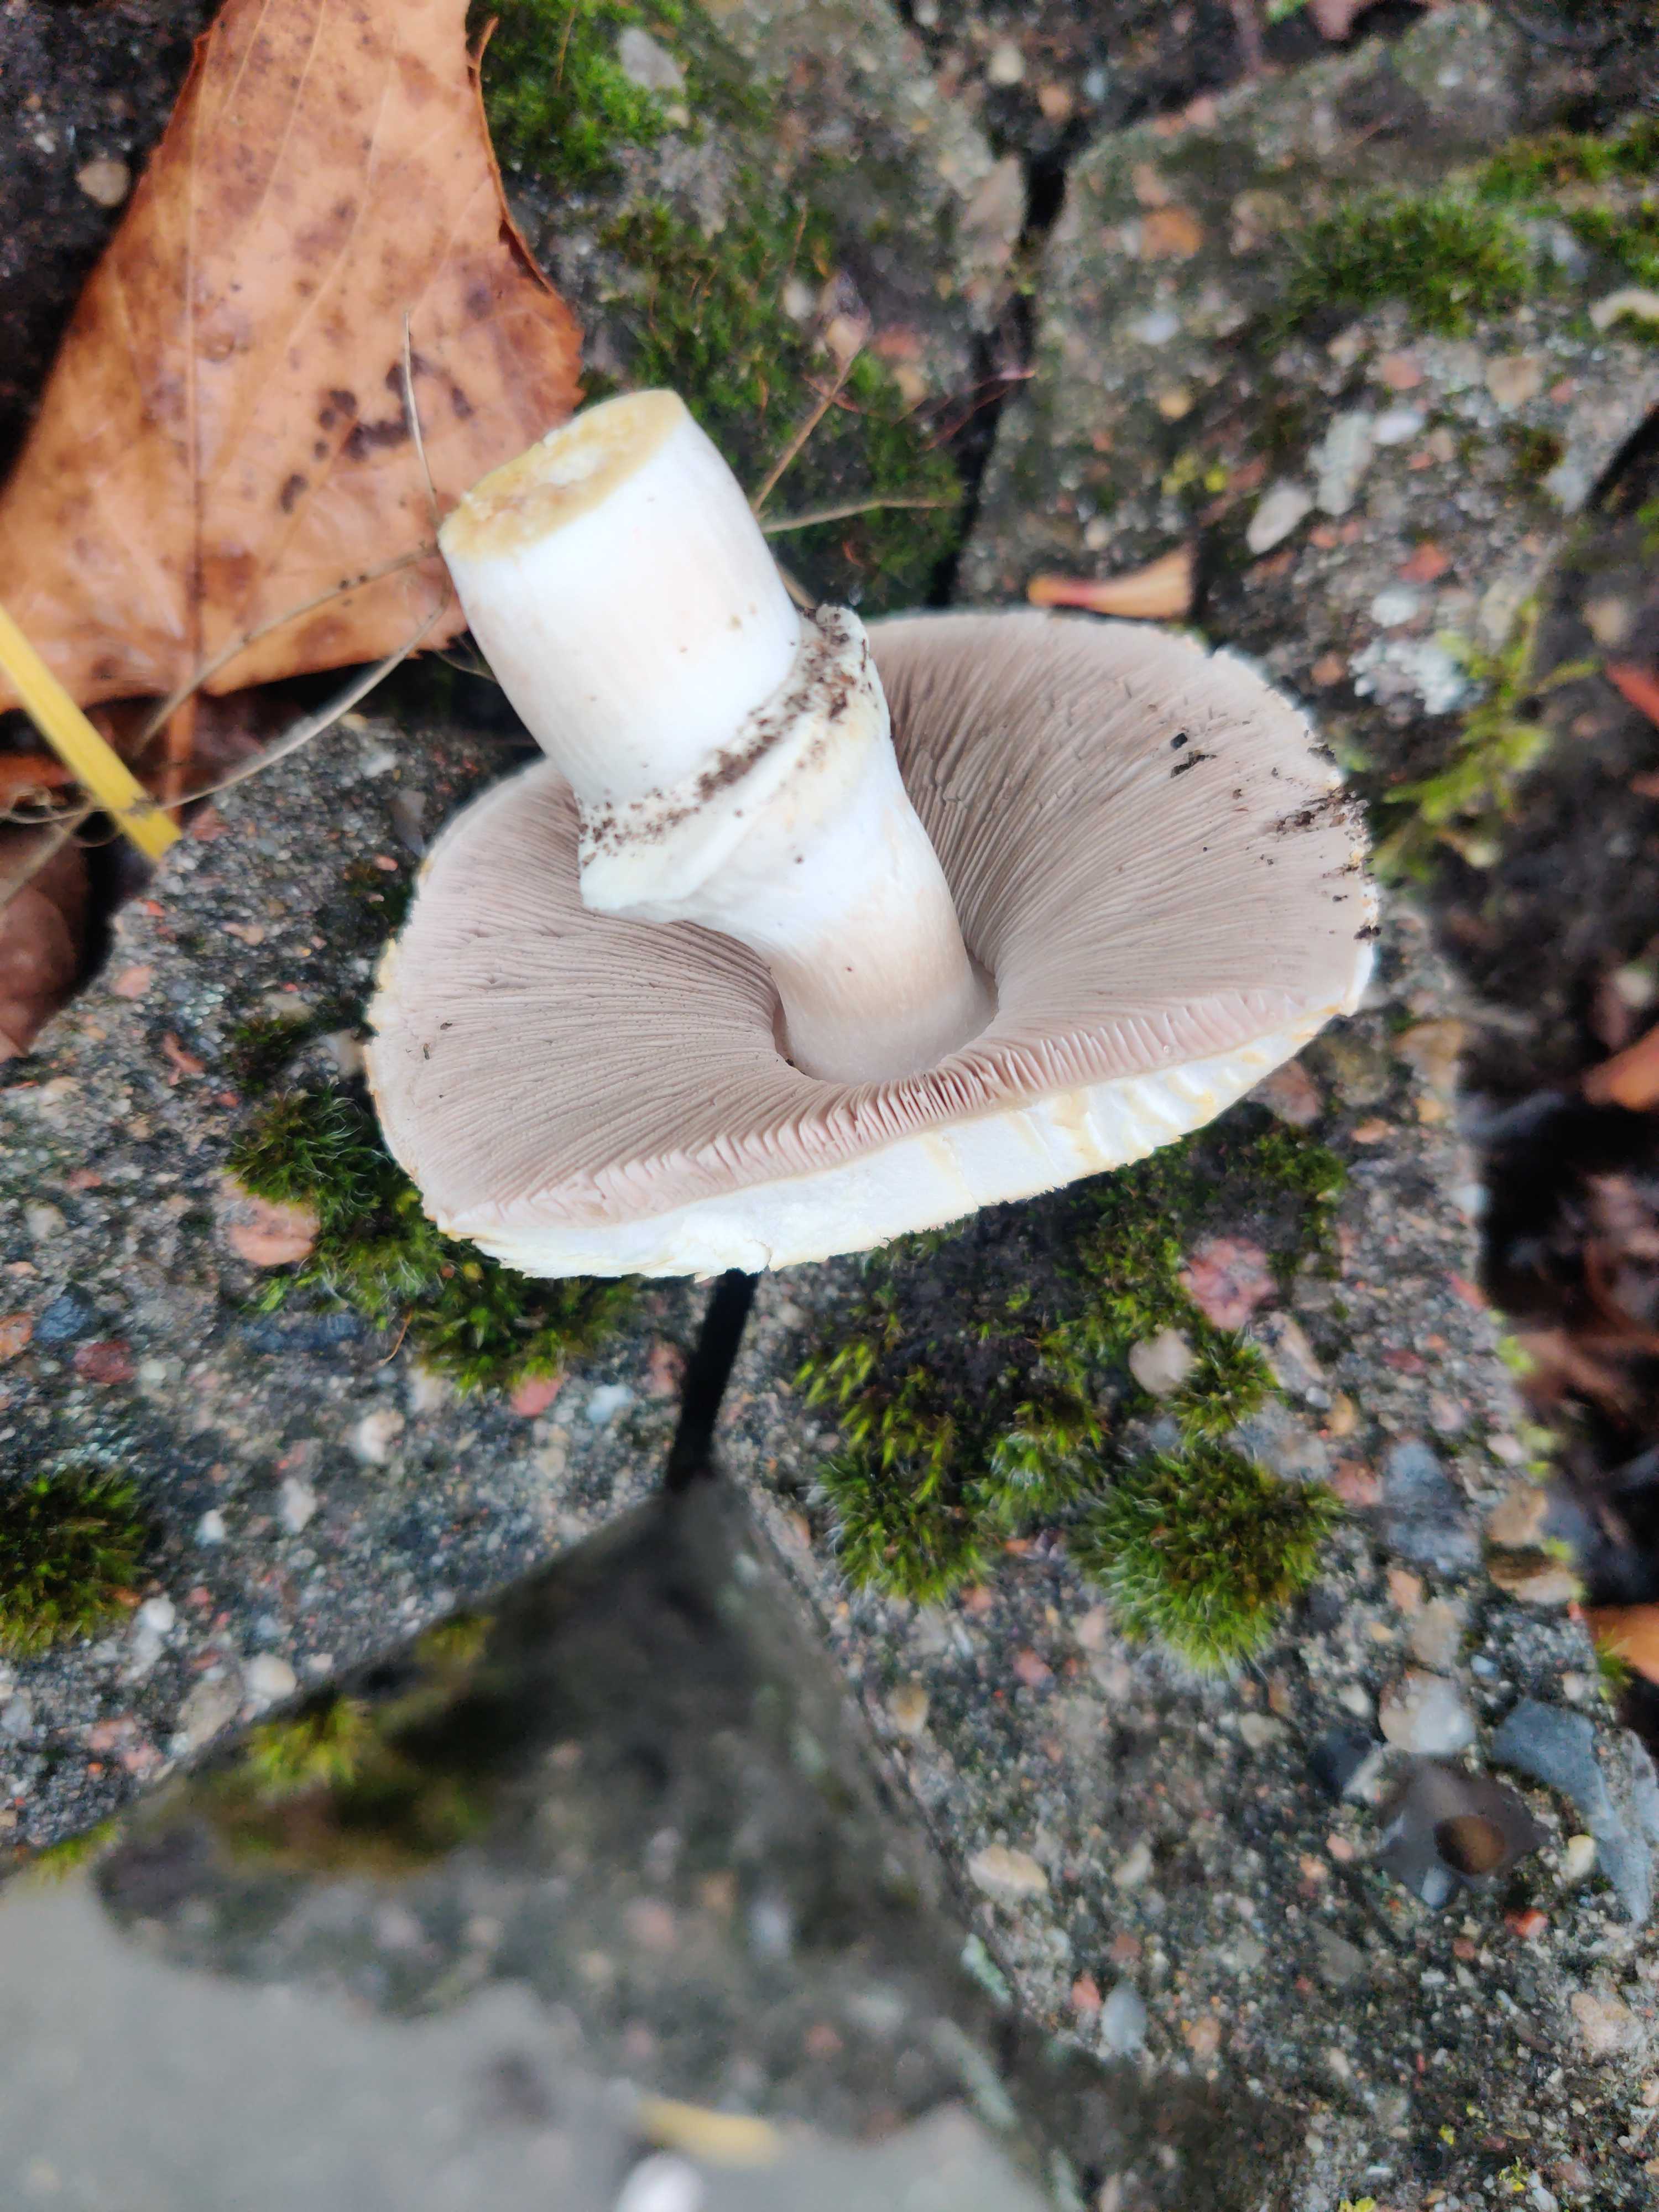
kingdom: Fungi
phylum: Basidiomycota
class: Agaricomycetes
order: Agaricales
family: Agaricaceae
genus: Agaricus
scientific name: Agaricus bitorquis
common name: vej-champignon
